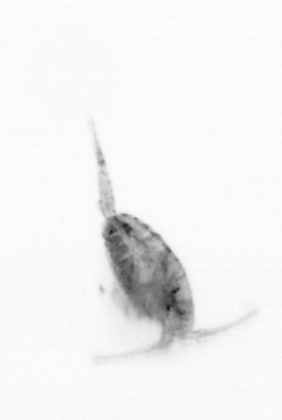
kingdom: Animalia
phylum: Arthropoda
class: Copepoda
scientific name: Copepoda
